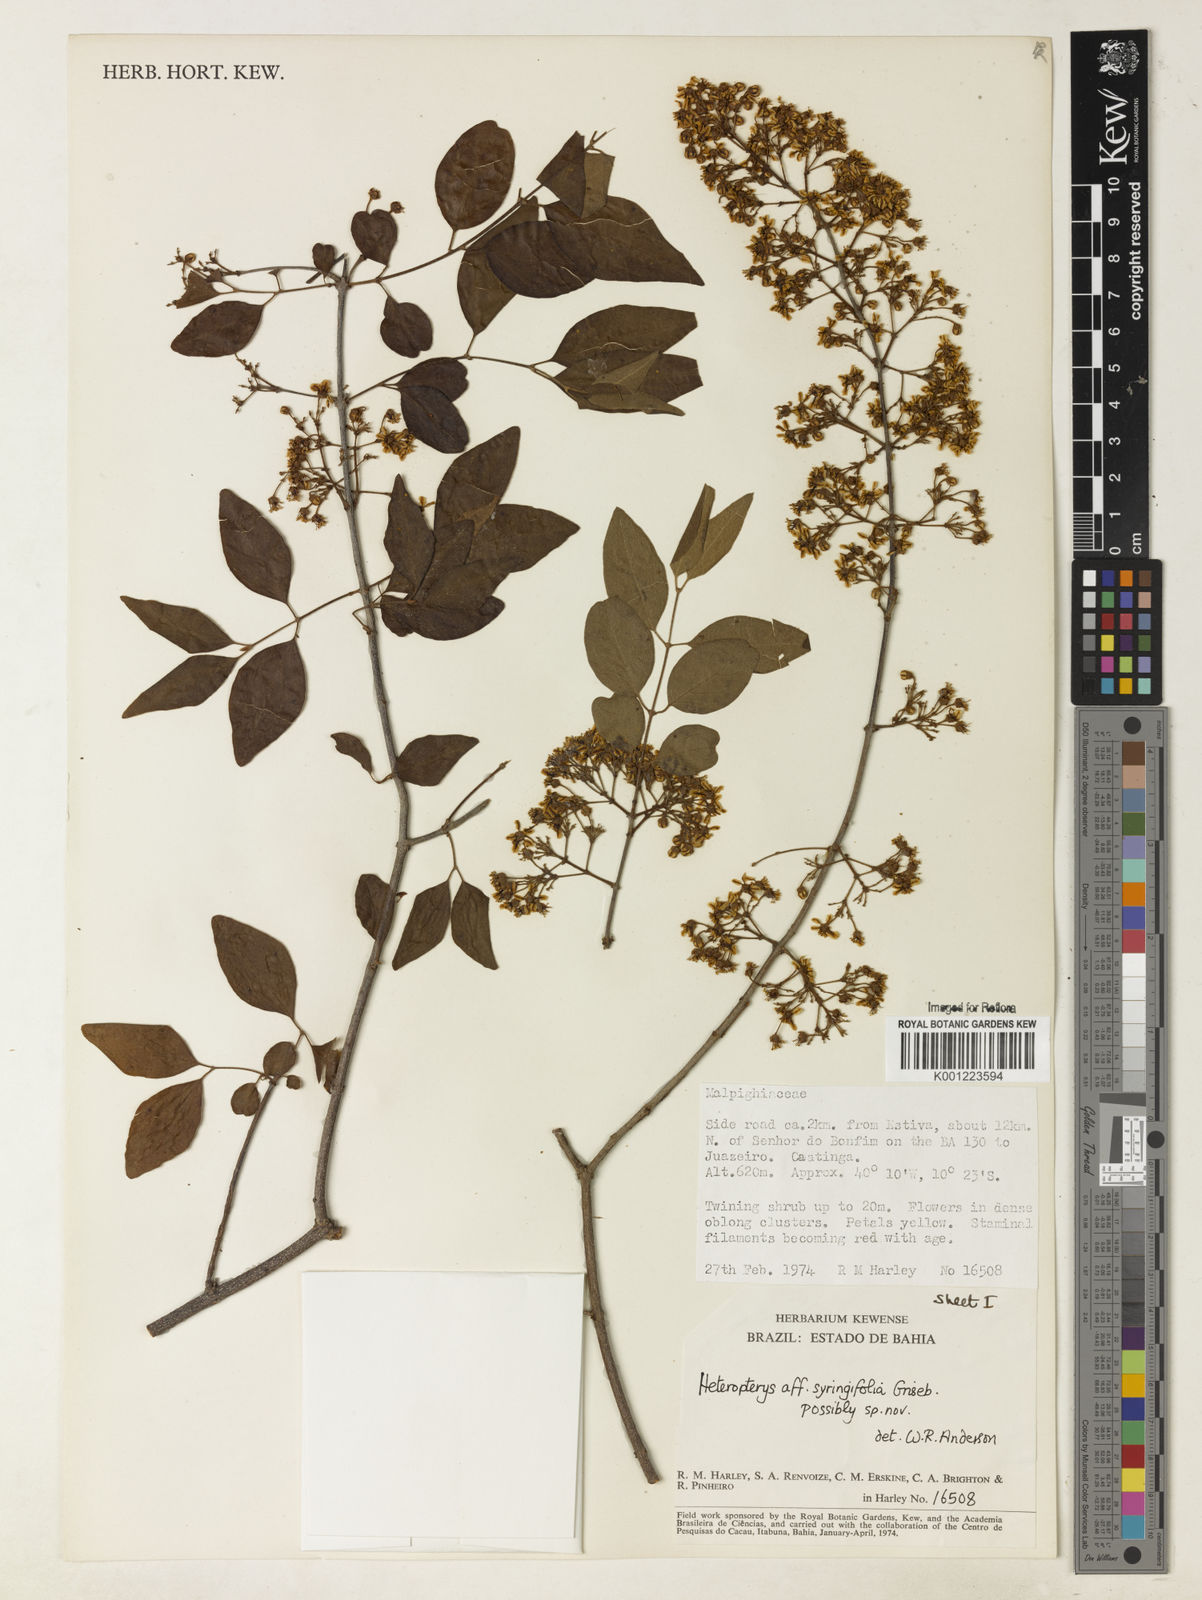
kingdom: Plantae
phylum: Tracheophyta
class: Magnoliopsida
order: Malpighiales
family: Malpighiaceae
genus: Heteropterys
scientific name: Heteropterys syringifolia
